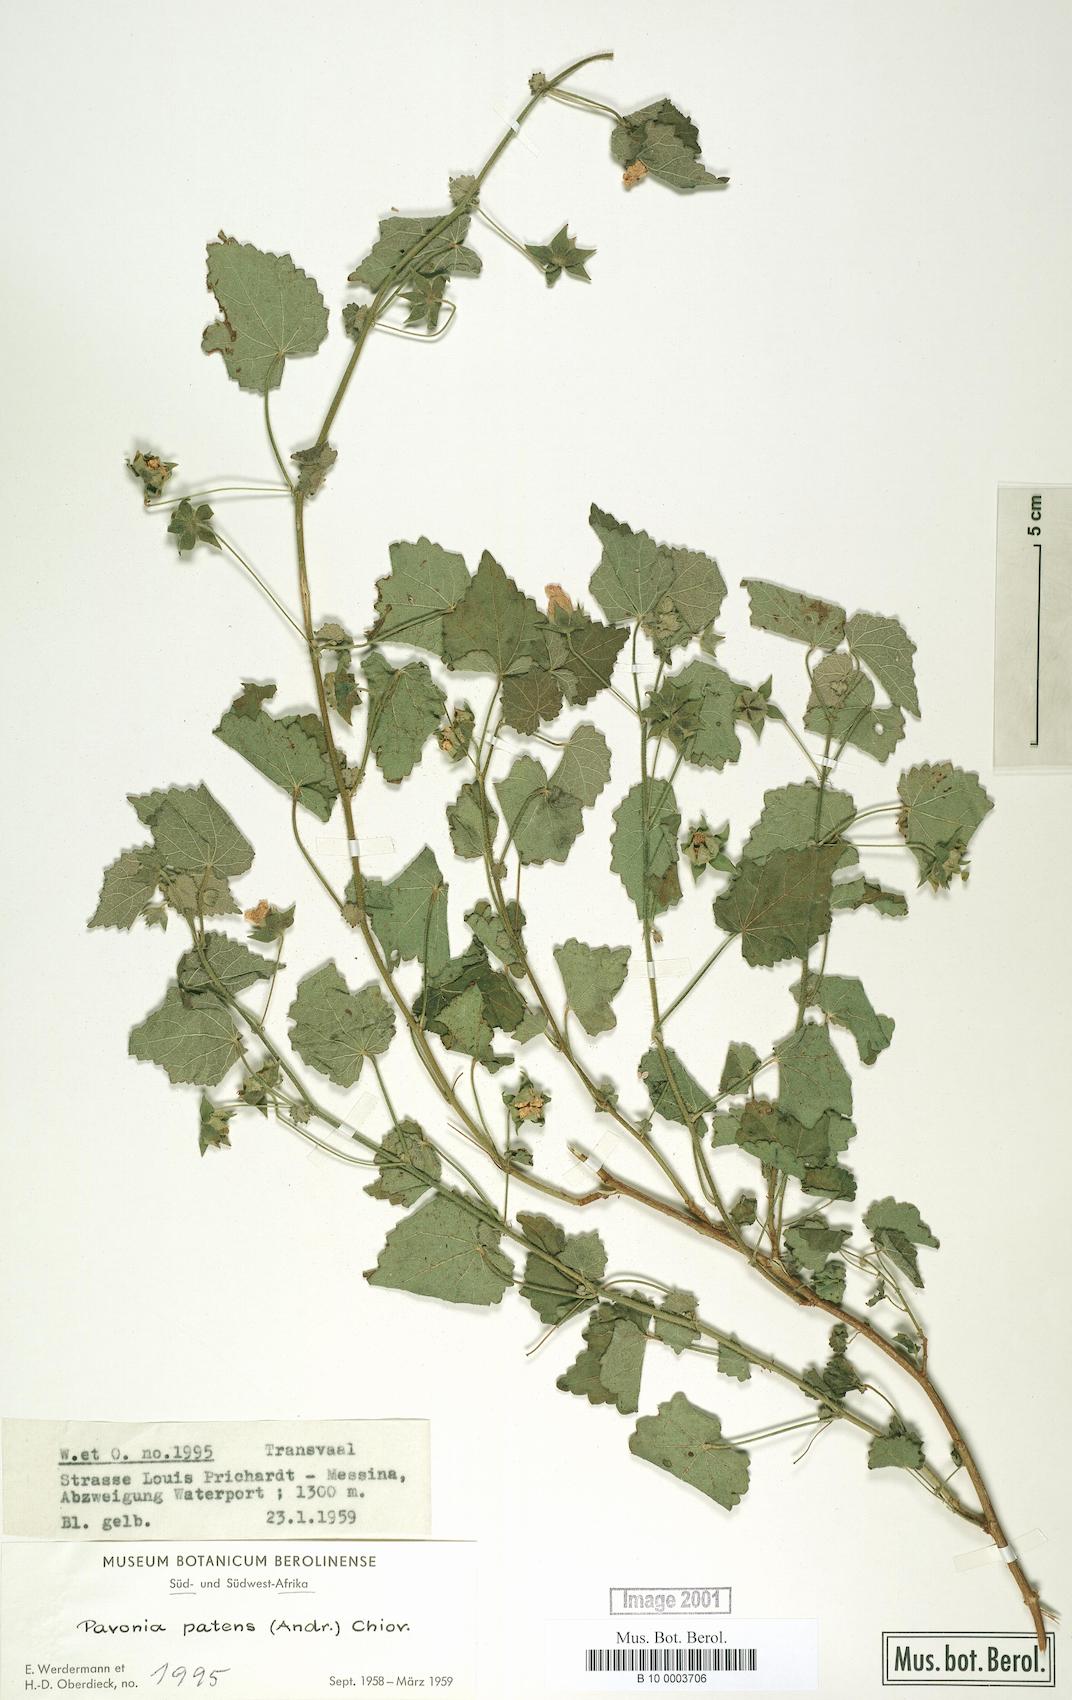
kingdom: Plantae
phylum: Tracheophyta
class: Magnoliopsida
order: Malvales
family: Malvaceae
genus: Abutilon
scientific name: Abutilon mauritianum
